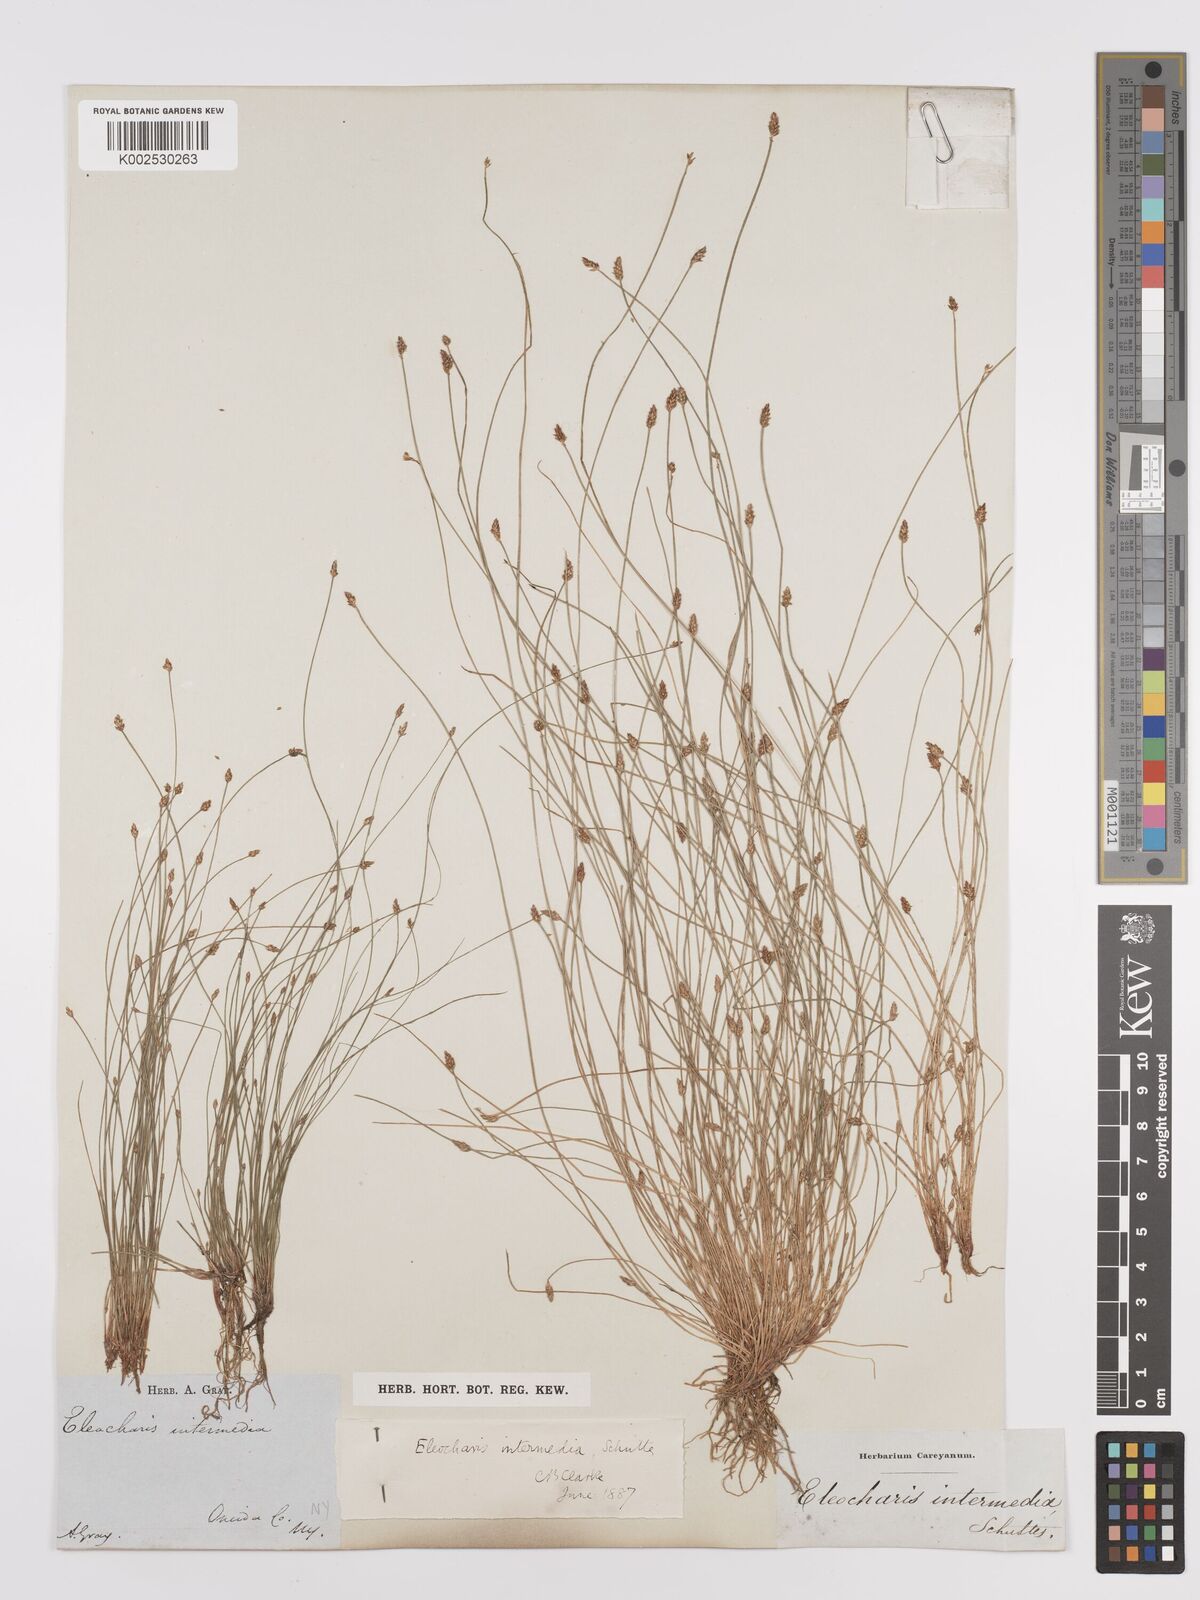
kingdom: Plantae
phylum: Tracheophyta
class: Liliopsida
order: Poales
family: Cyperaceae
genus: Eleocharis
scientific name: Eleocharis intermedia
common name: Intermediate spikerush
